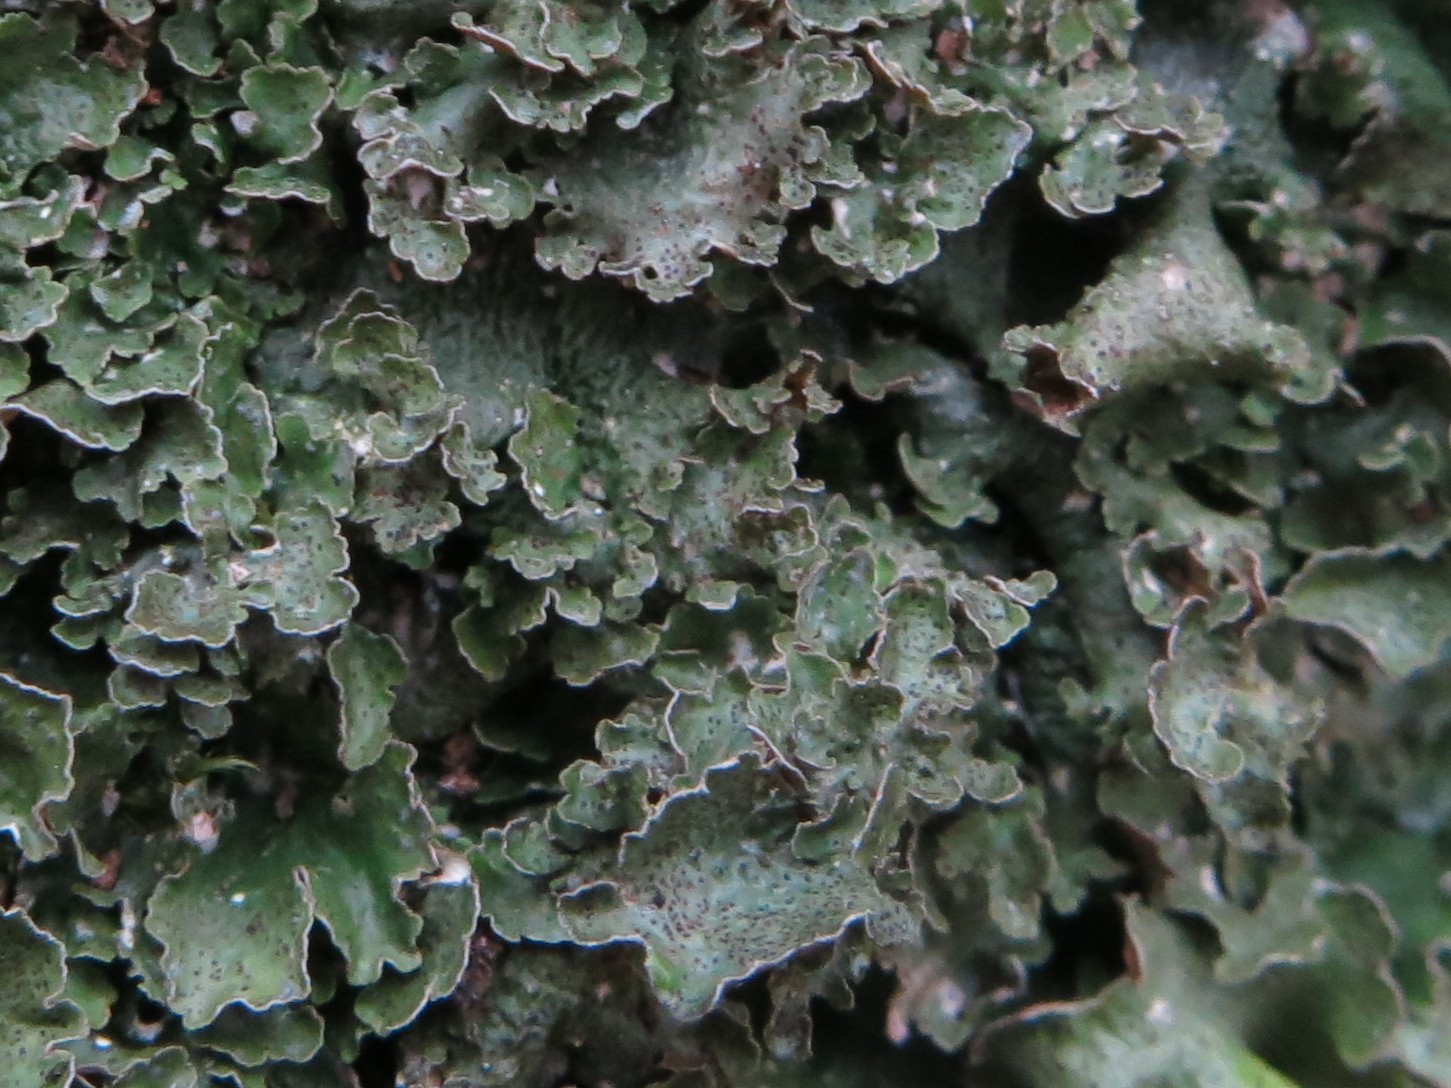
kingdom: Fungi
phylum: Ascomycota
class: Lecanoromycetes
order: Lecanorales
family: Parmeliaceae
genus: Pleurosticta
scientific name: Pleurosticta acetabulum
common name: stor skållav
